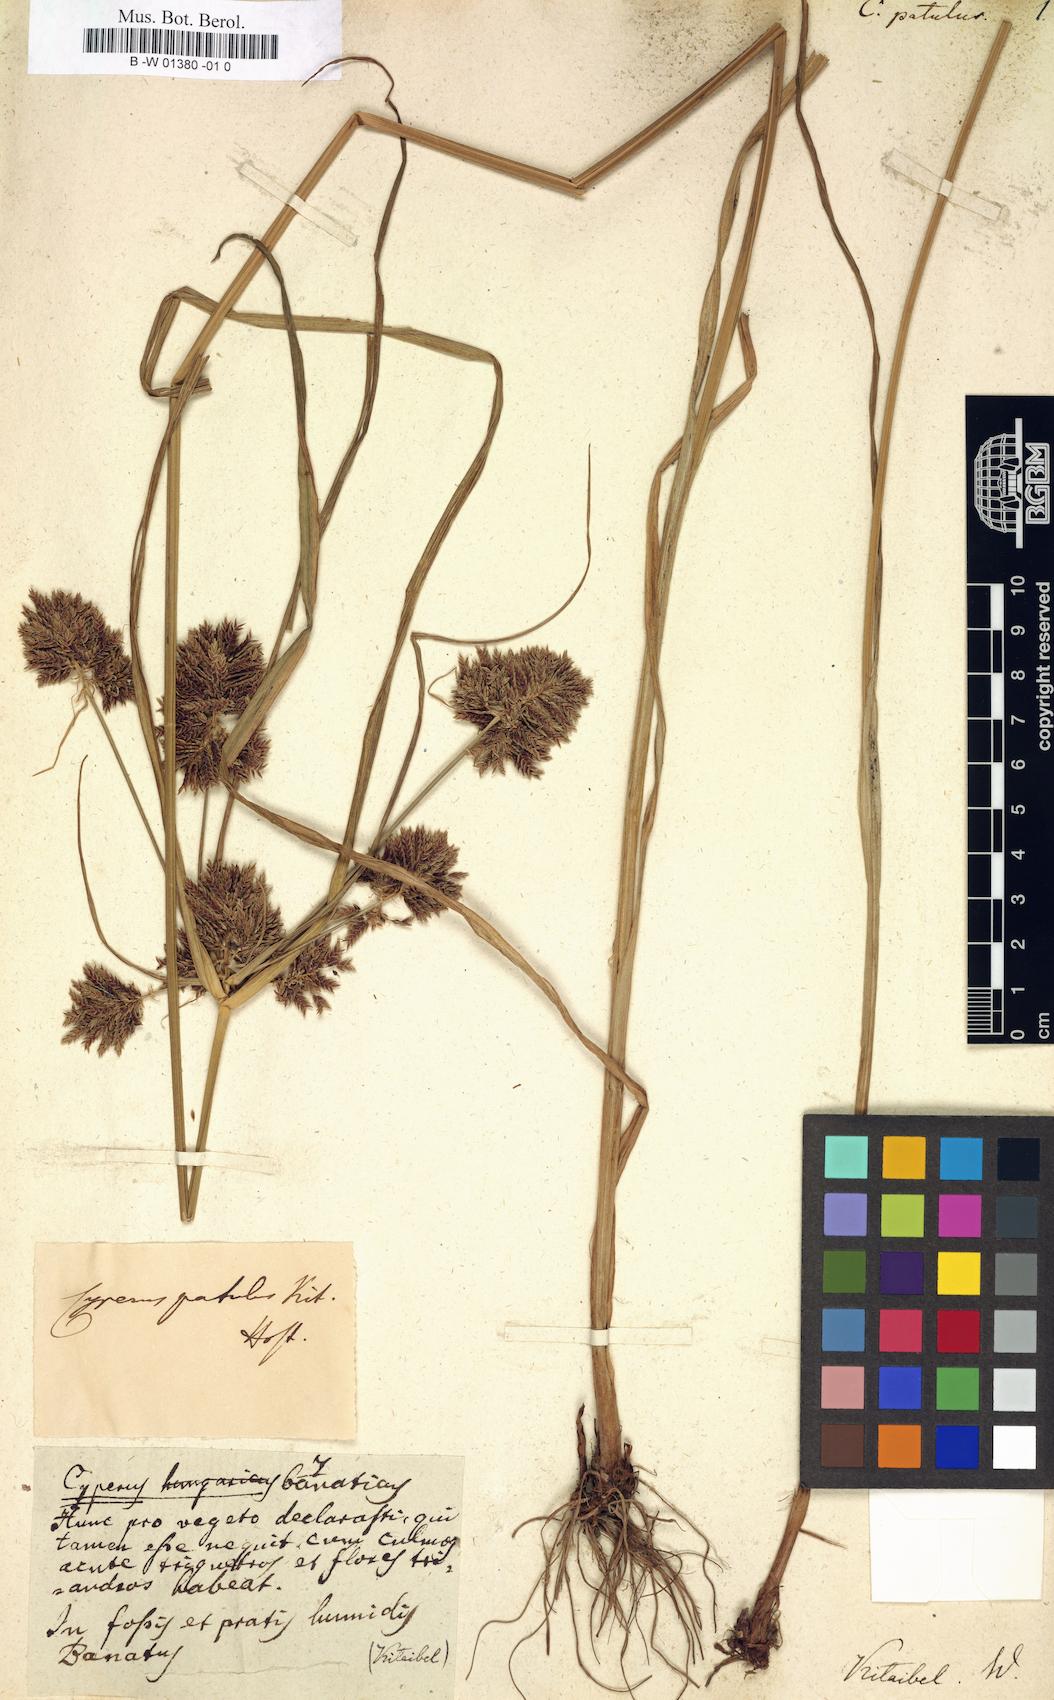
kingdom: Plantae
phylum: Tracheophyta
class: Liliopsida
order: Poales
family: Cyperaceae
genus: Cyperus
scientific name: Cyperus
